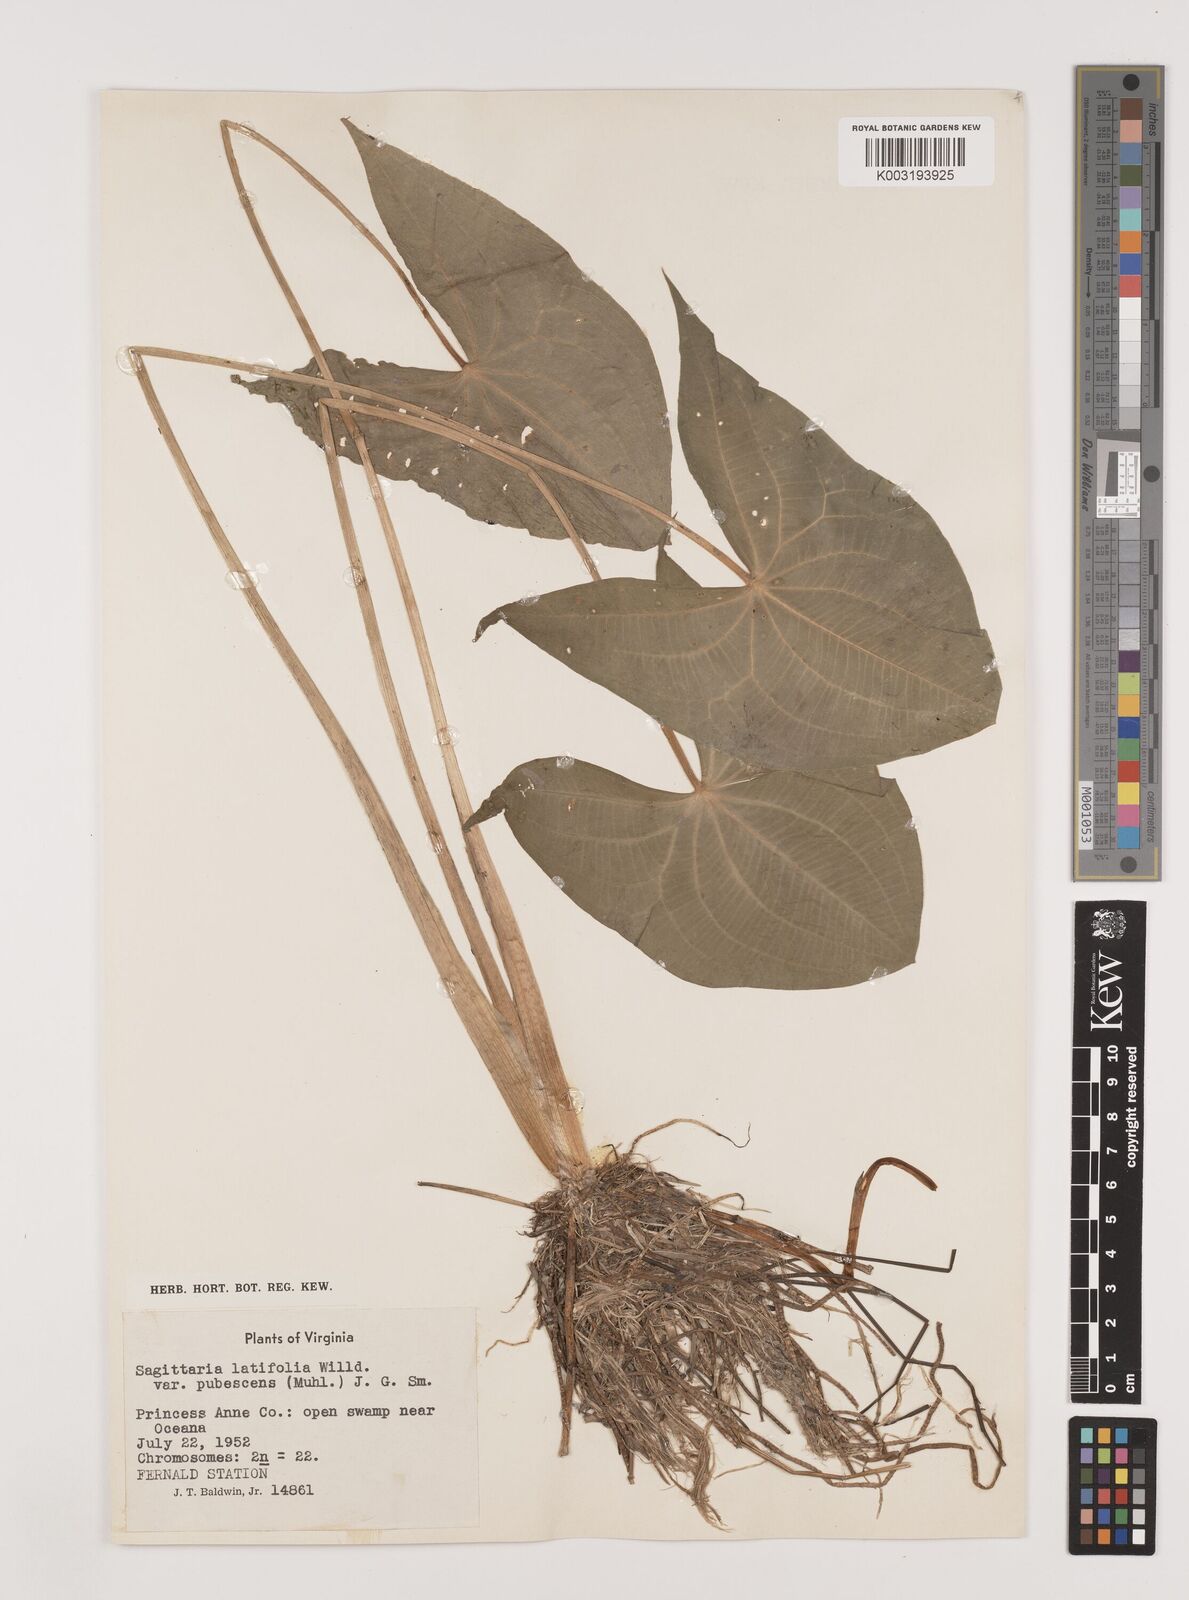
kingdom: Plantae
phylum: Tracheophyta
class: Liliopsida
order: Alismatales
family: Alismataceae
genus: Sagittaria
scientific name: Sagittaria latifolia
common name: Duck-potato
